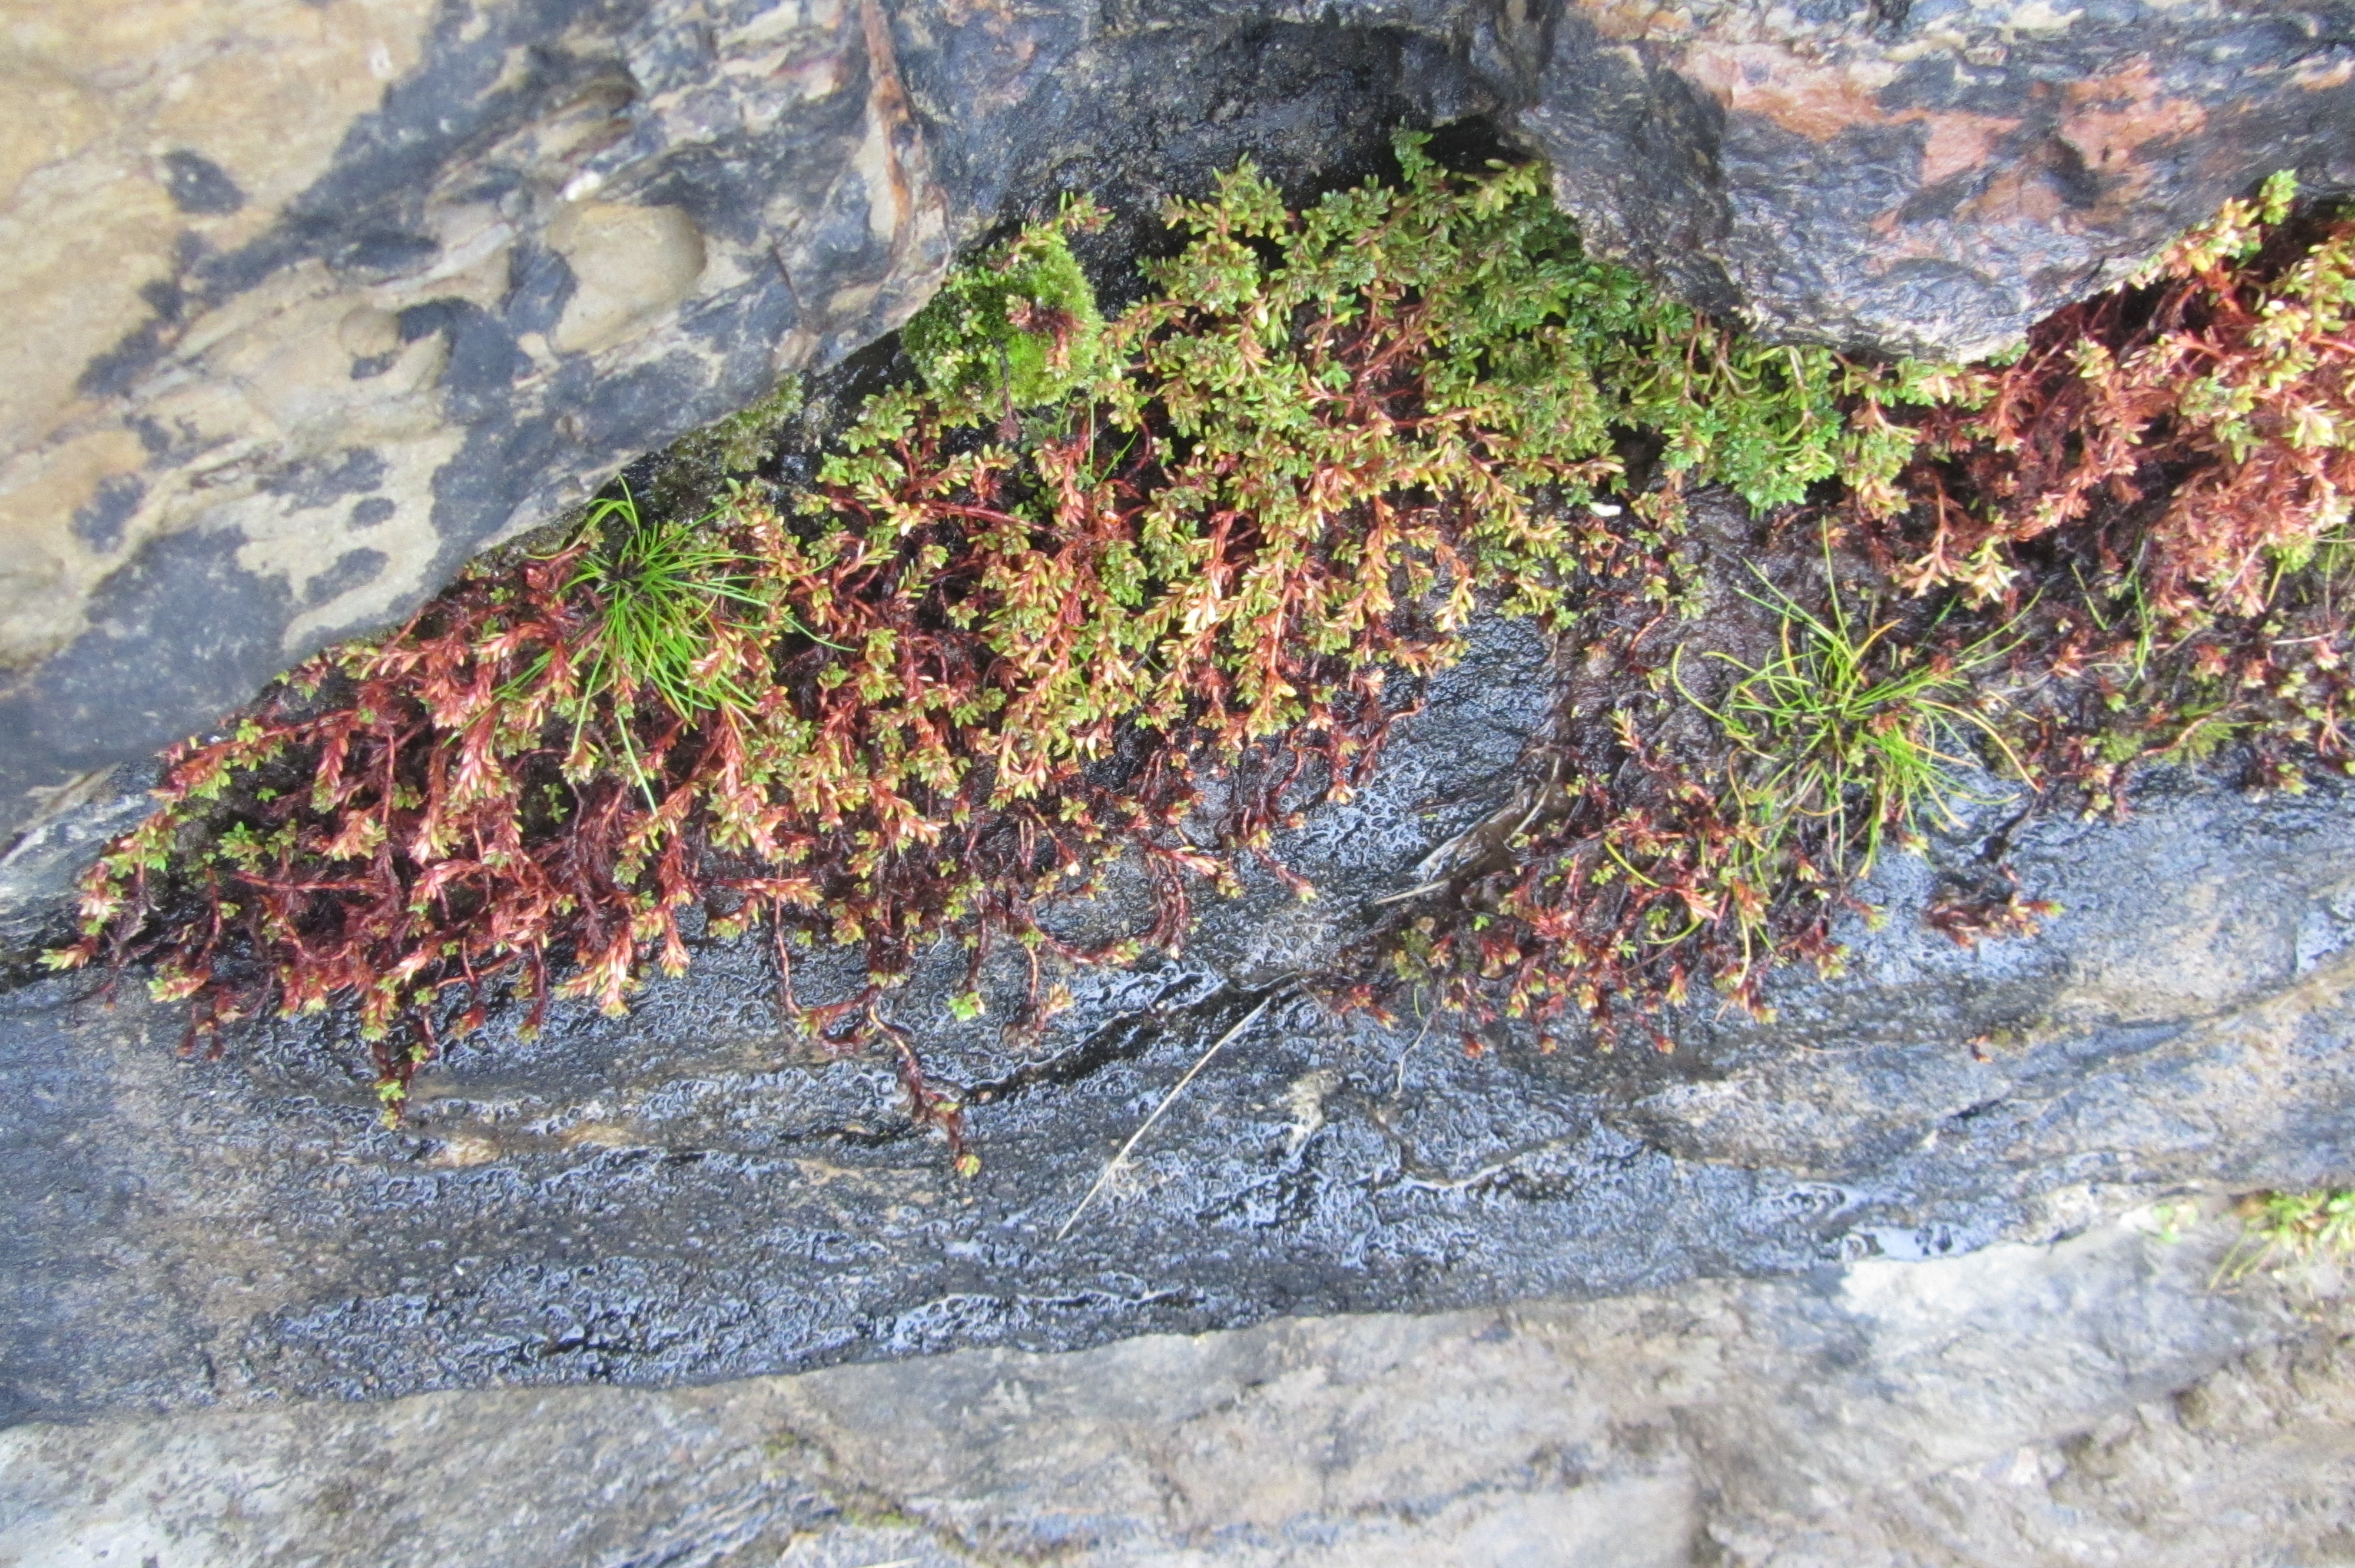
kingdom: Plantae
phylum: Tracheophyta
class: Magnoliopsida
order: Saxifragales
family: Crassulaceae
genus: Crassula
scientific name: Crassula moschata
